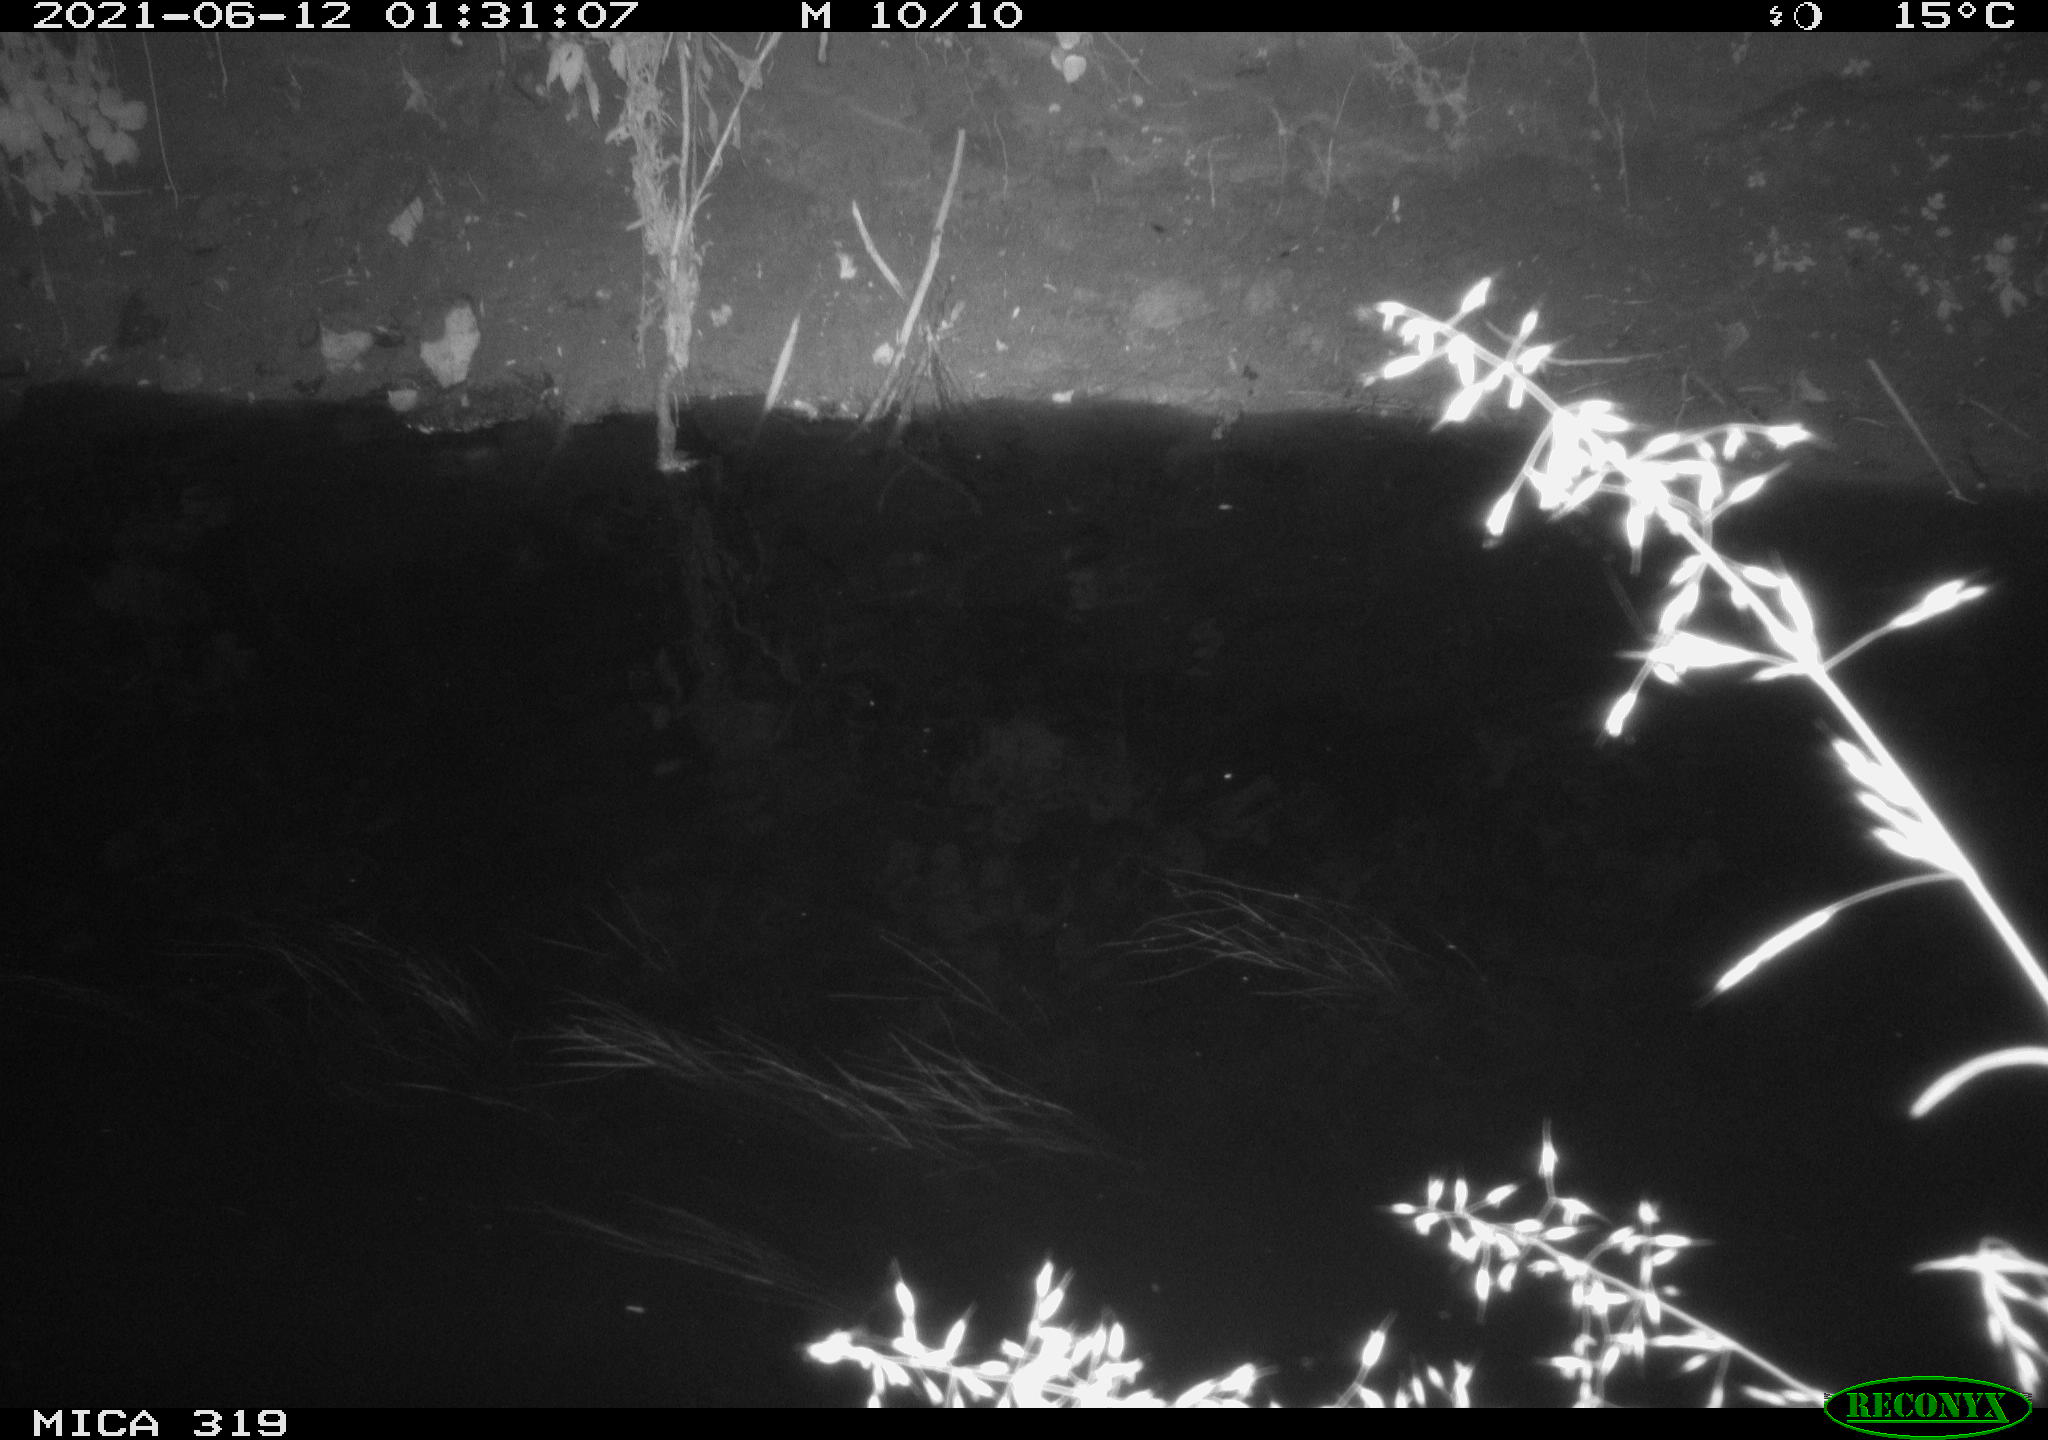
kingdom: Animalia
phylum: Chordata
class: Aves
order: Anseriformes
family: Anatidae
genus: Anas
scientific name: Anas platyrhynchos
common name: Mallard
